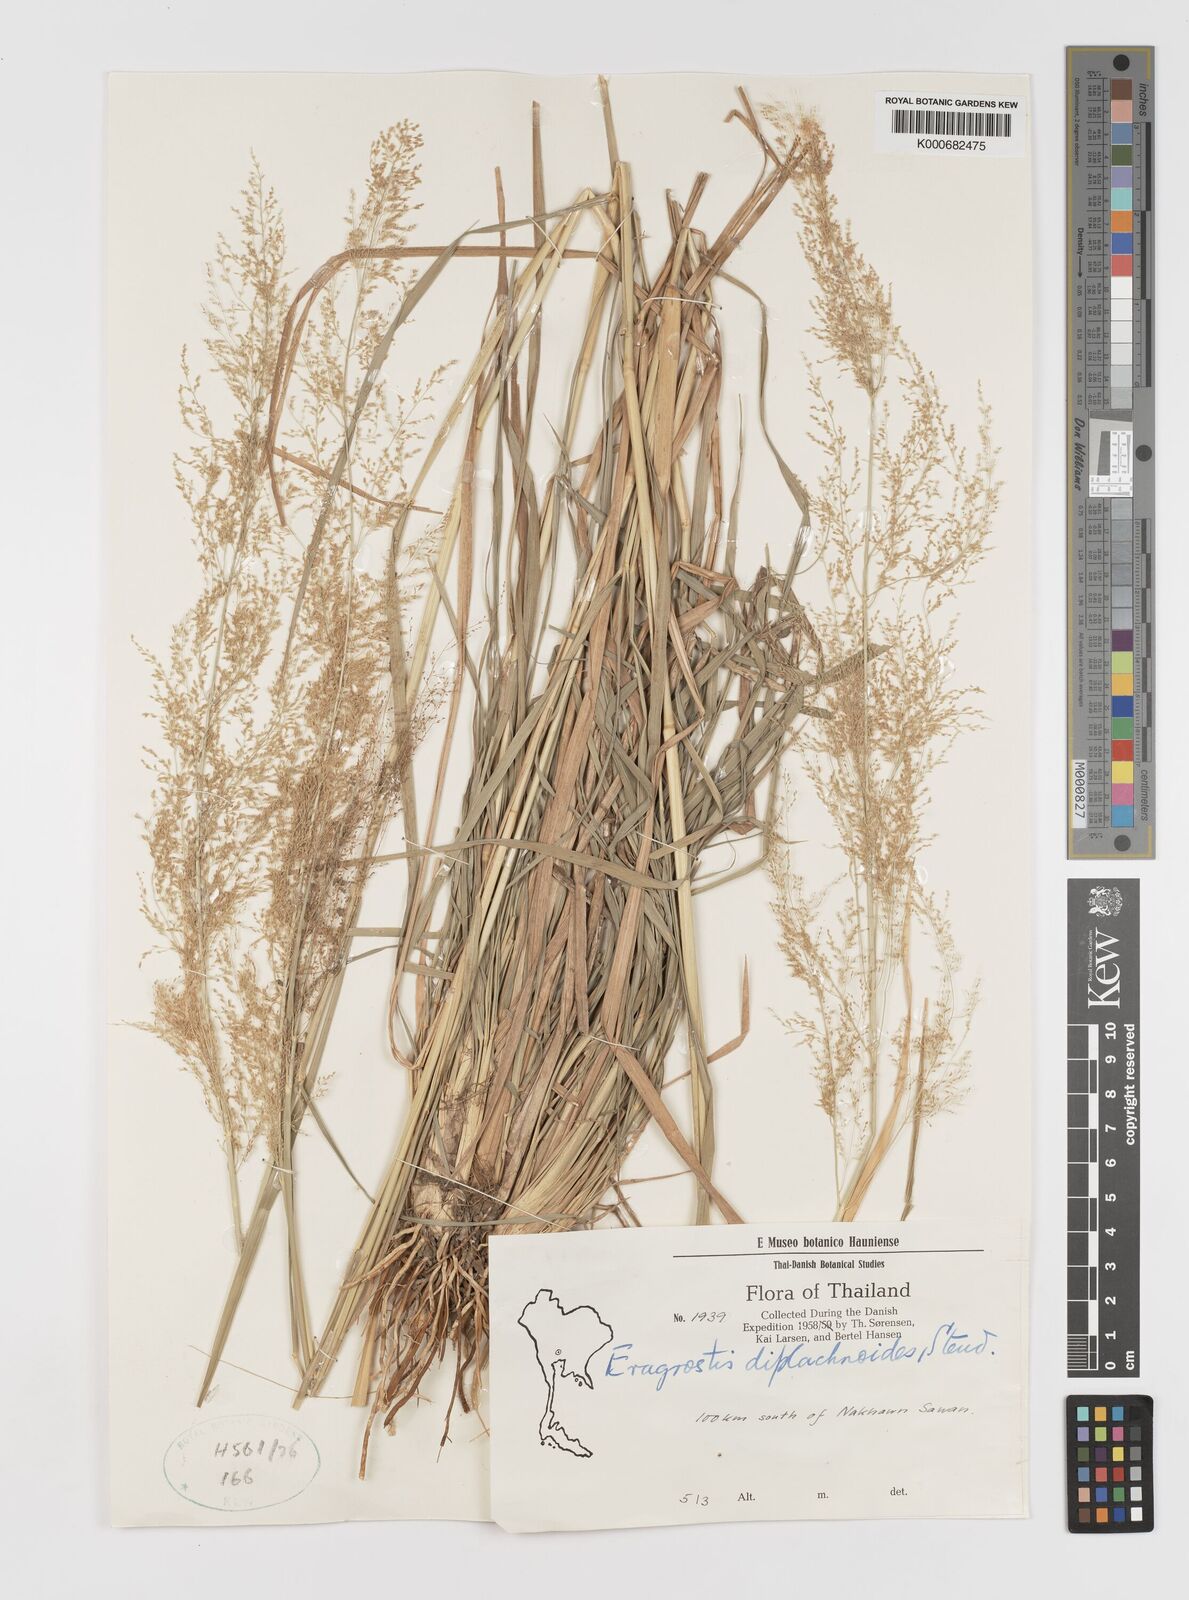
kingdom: Plantae
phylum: Tracheophyta
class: Liliopsida
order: Poales
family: Poaceae
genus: Eragrostis
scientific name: Eragrostis japonica
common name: Pond lovegrass
